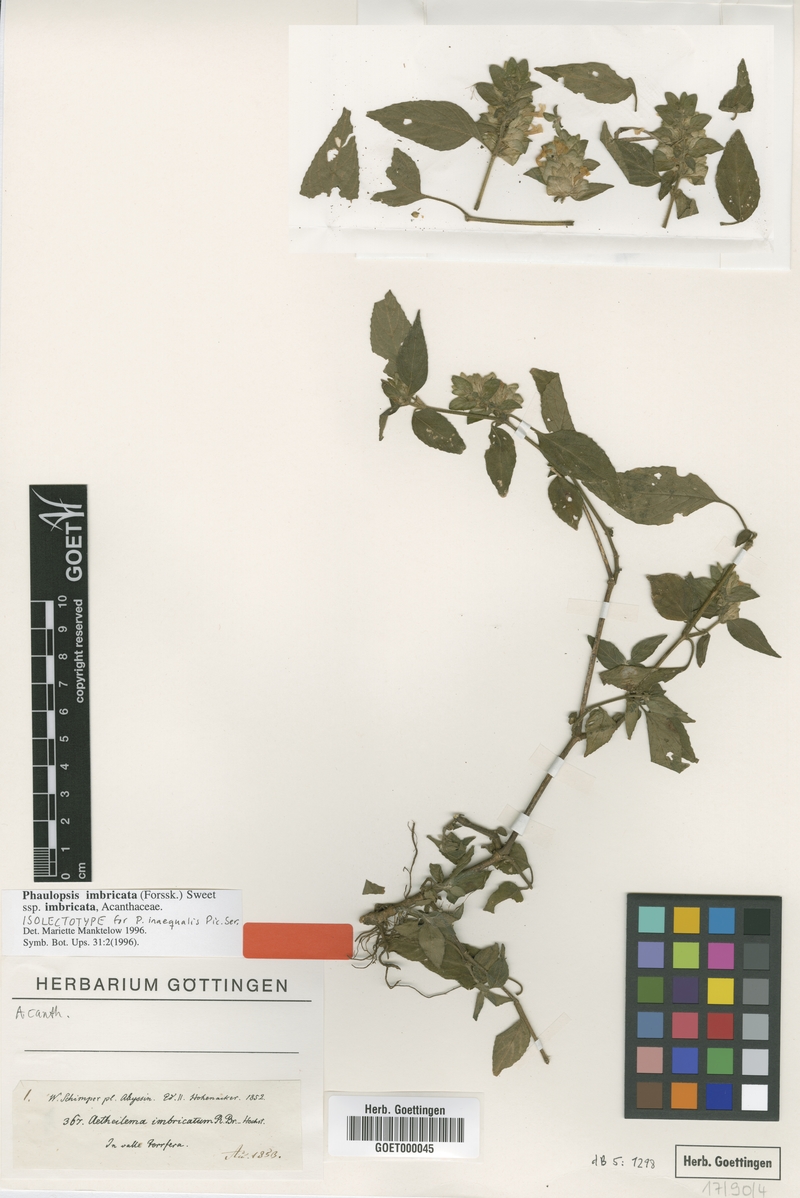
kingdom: Plantae
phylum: Tracheophyta
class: Magnoliopsida
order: Lamiales
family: Acanthaceae
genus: Phaulopsis
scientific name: Phaulopsis imbricata
